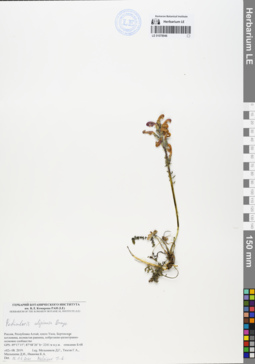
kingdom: Plantae
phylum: Tracheophyta
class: Magnoliopsida
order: Lamiales
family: Orobanchaceae
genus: Pedicularis
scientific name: Pedicularis uliginosa
